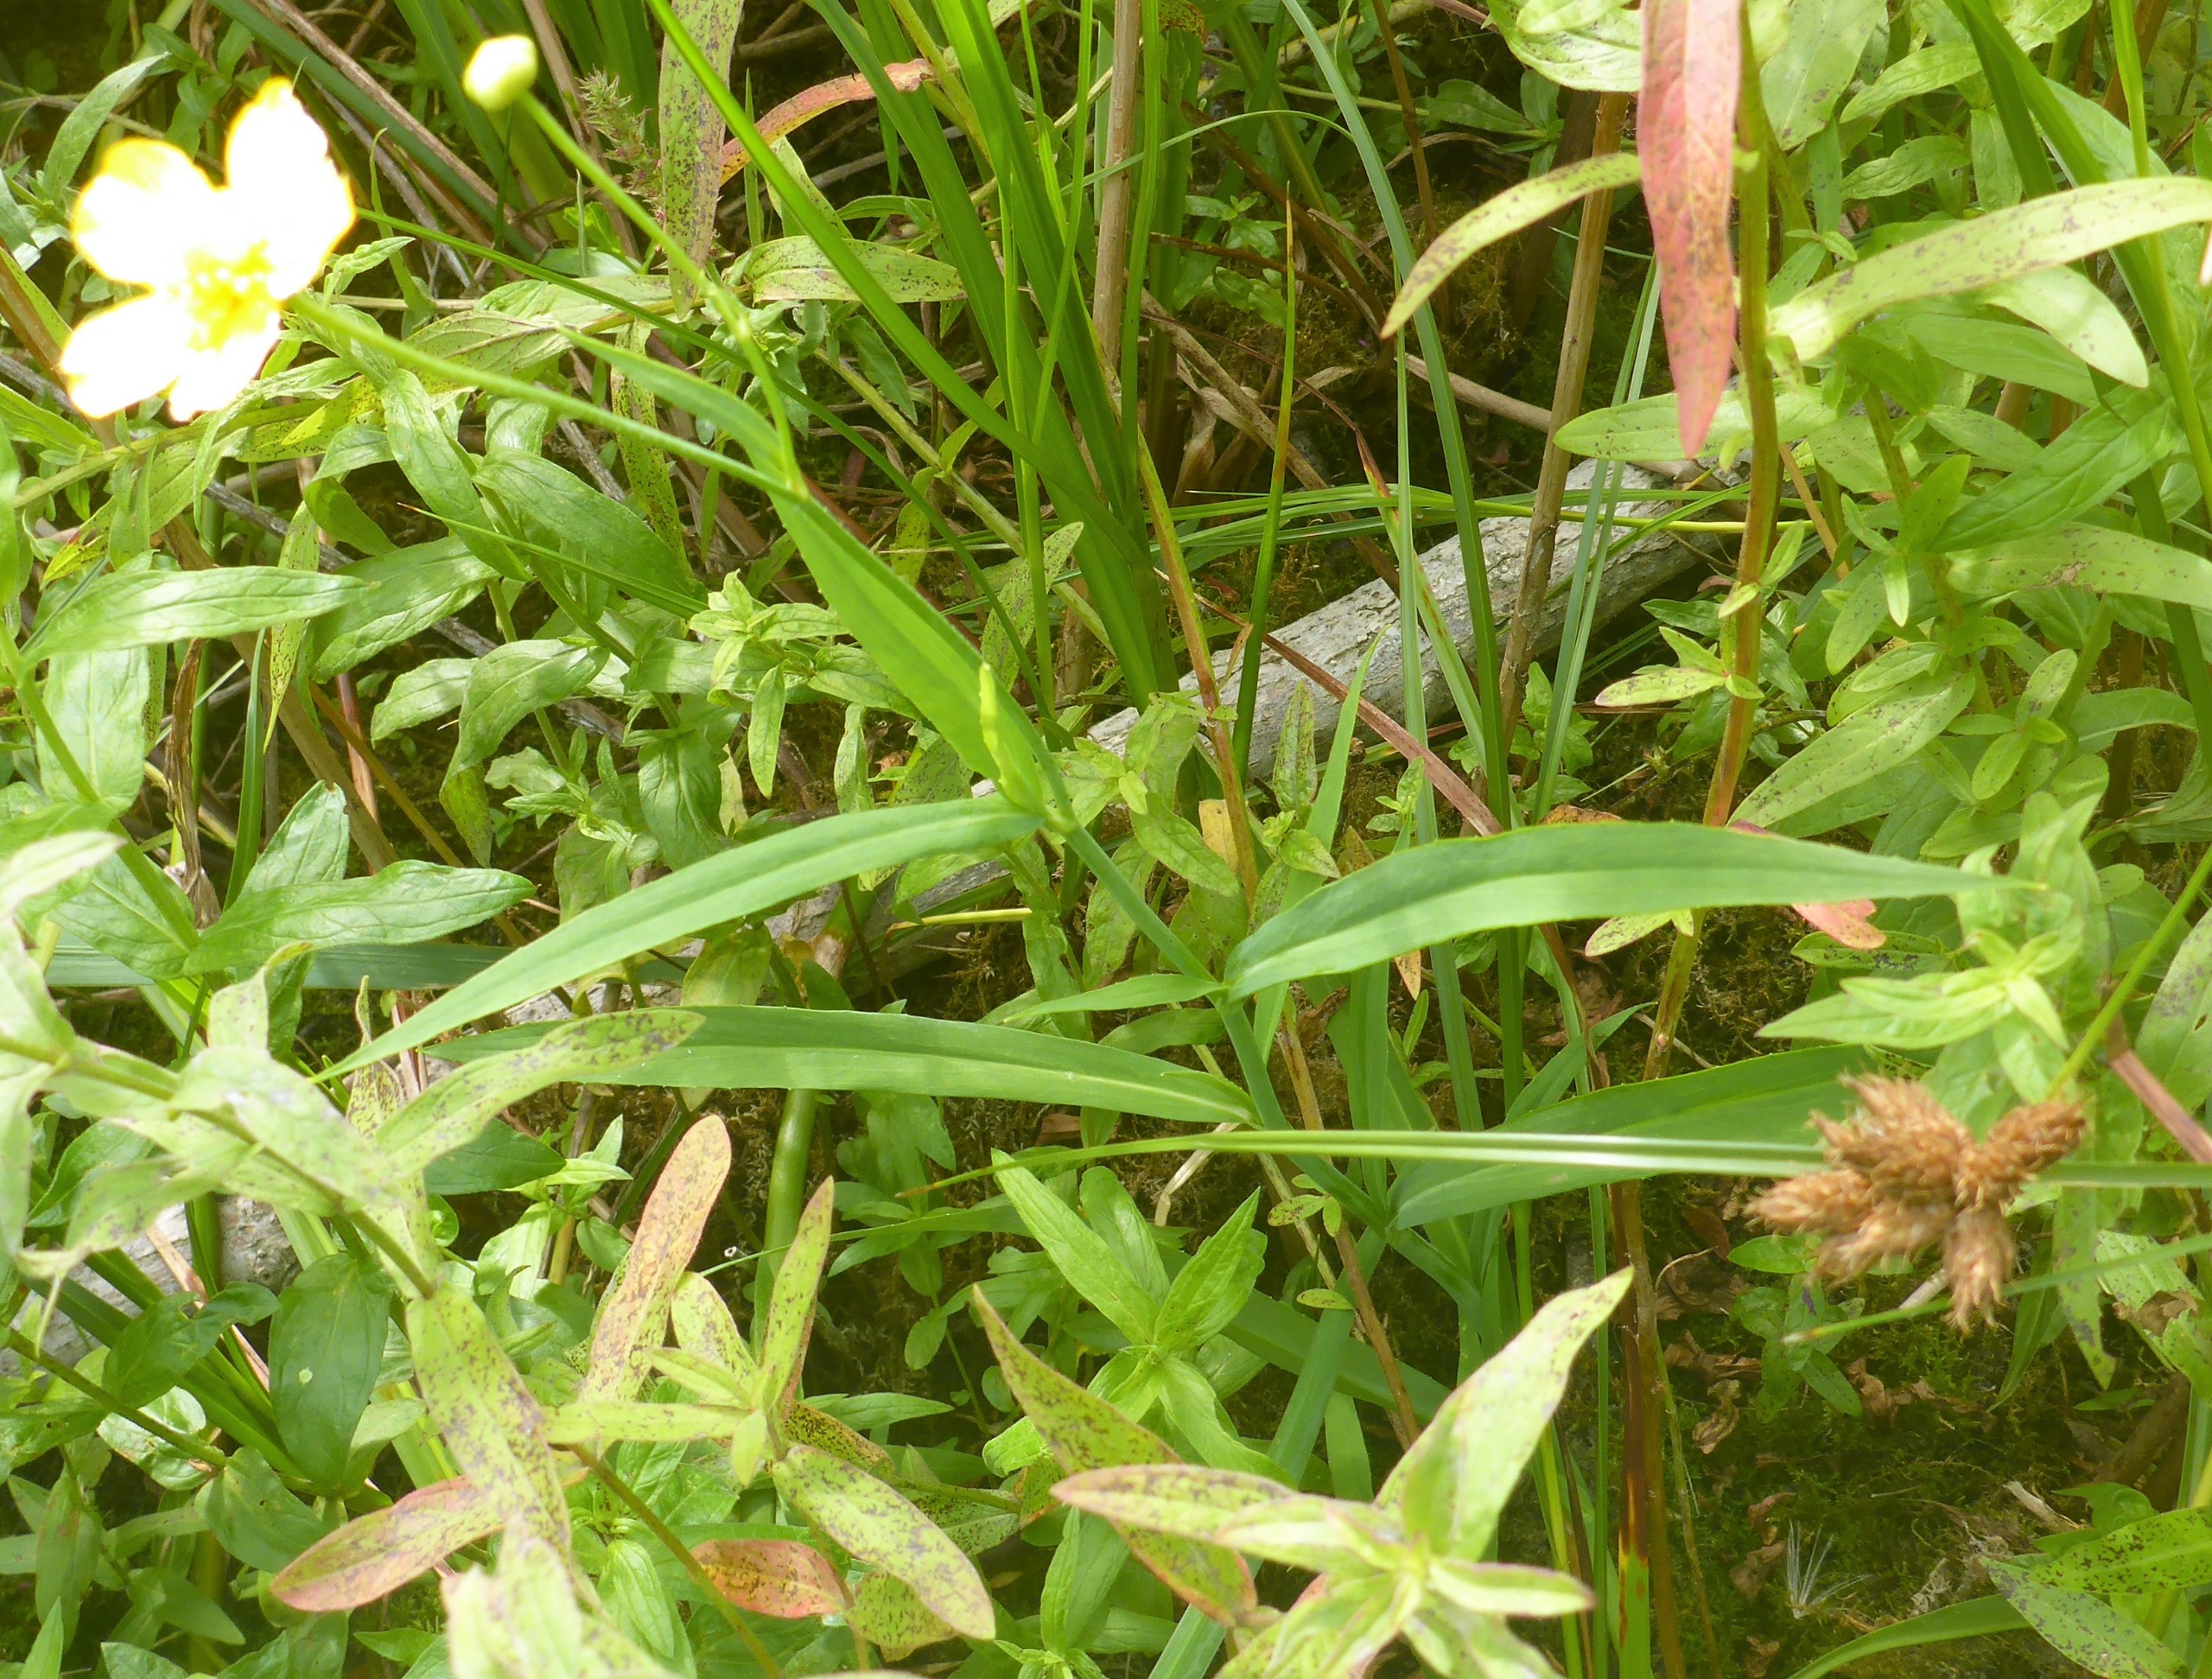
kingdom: Plantae
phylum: Tracheophyta
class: Magnoliopsida
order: Ranunculales
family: Ranunculaceae
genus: Ranunculus
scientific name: Ranunculus lingua
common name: Langbladet ranunkel
